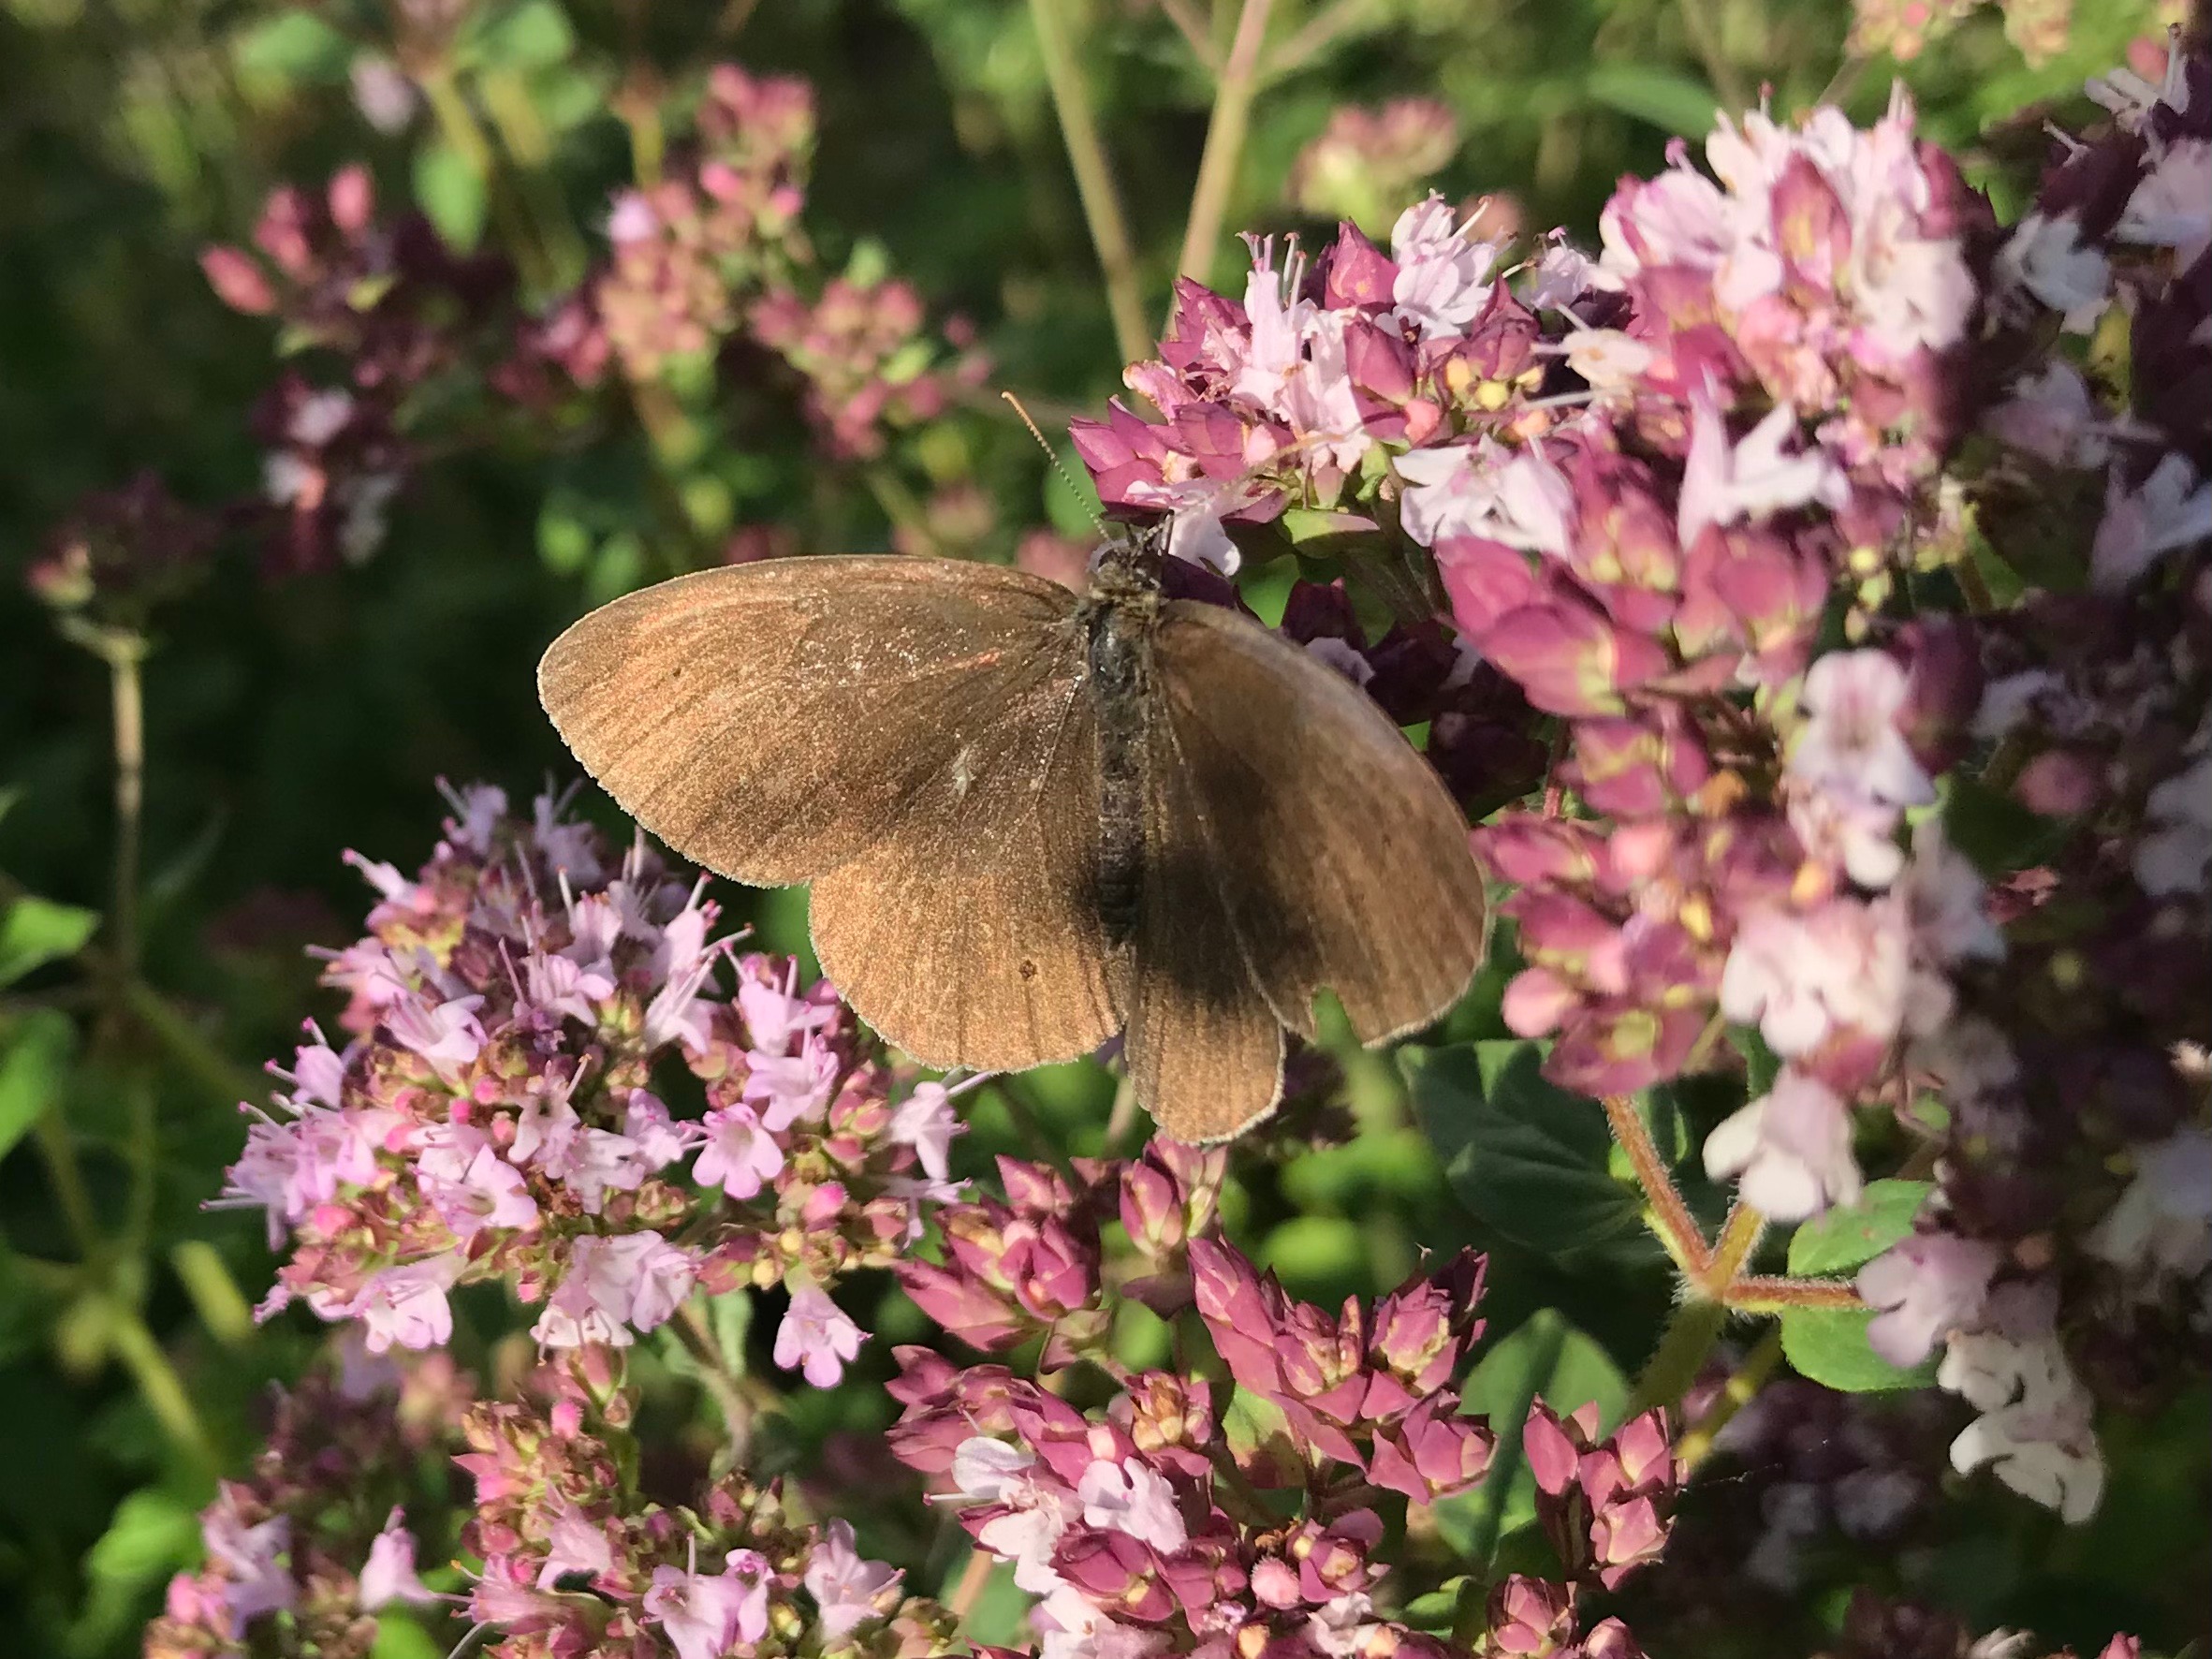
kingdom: Animalia
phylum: Arthropoda
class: Insecta
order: Lepidoptera
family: Nymphalidae
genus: Aphantopus
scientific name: Aphantopus hyperantus
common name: Engrandøje
